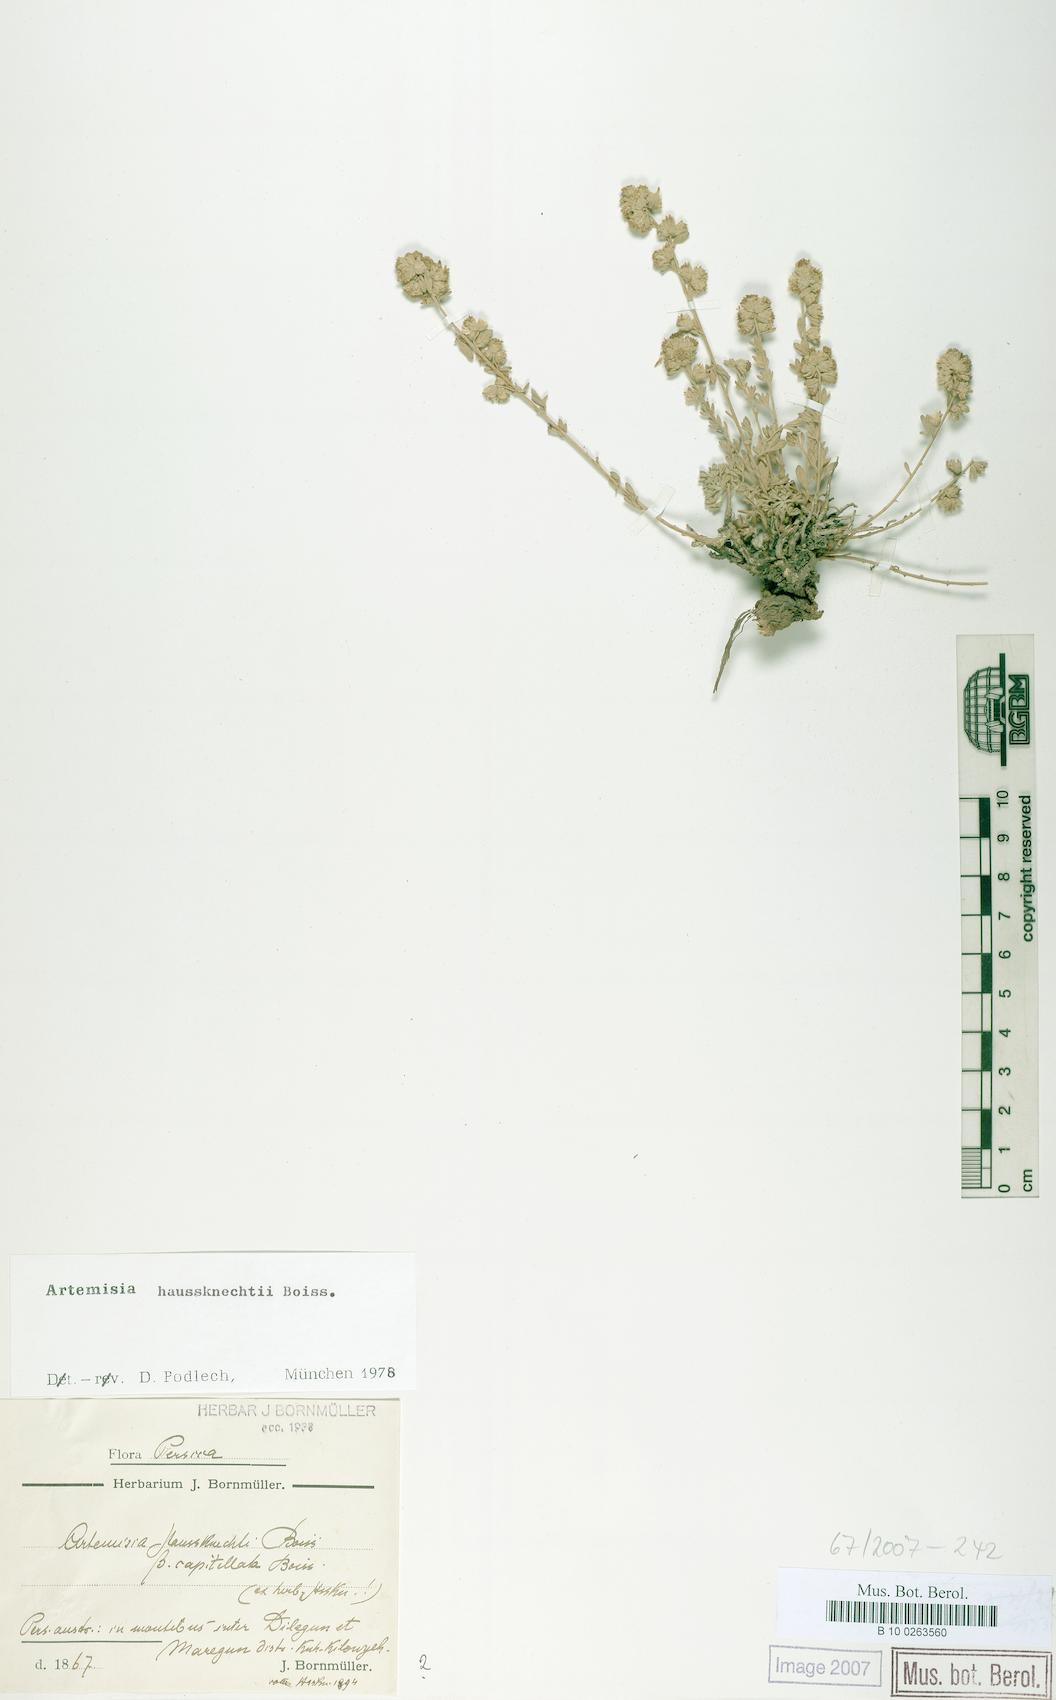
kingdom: Plantae
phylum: Tracheophyta
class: Magnoliopsida
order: Asterales
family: Asteraceae
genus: Artemisia
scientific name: Artemisia haussknechtii
